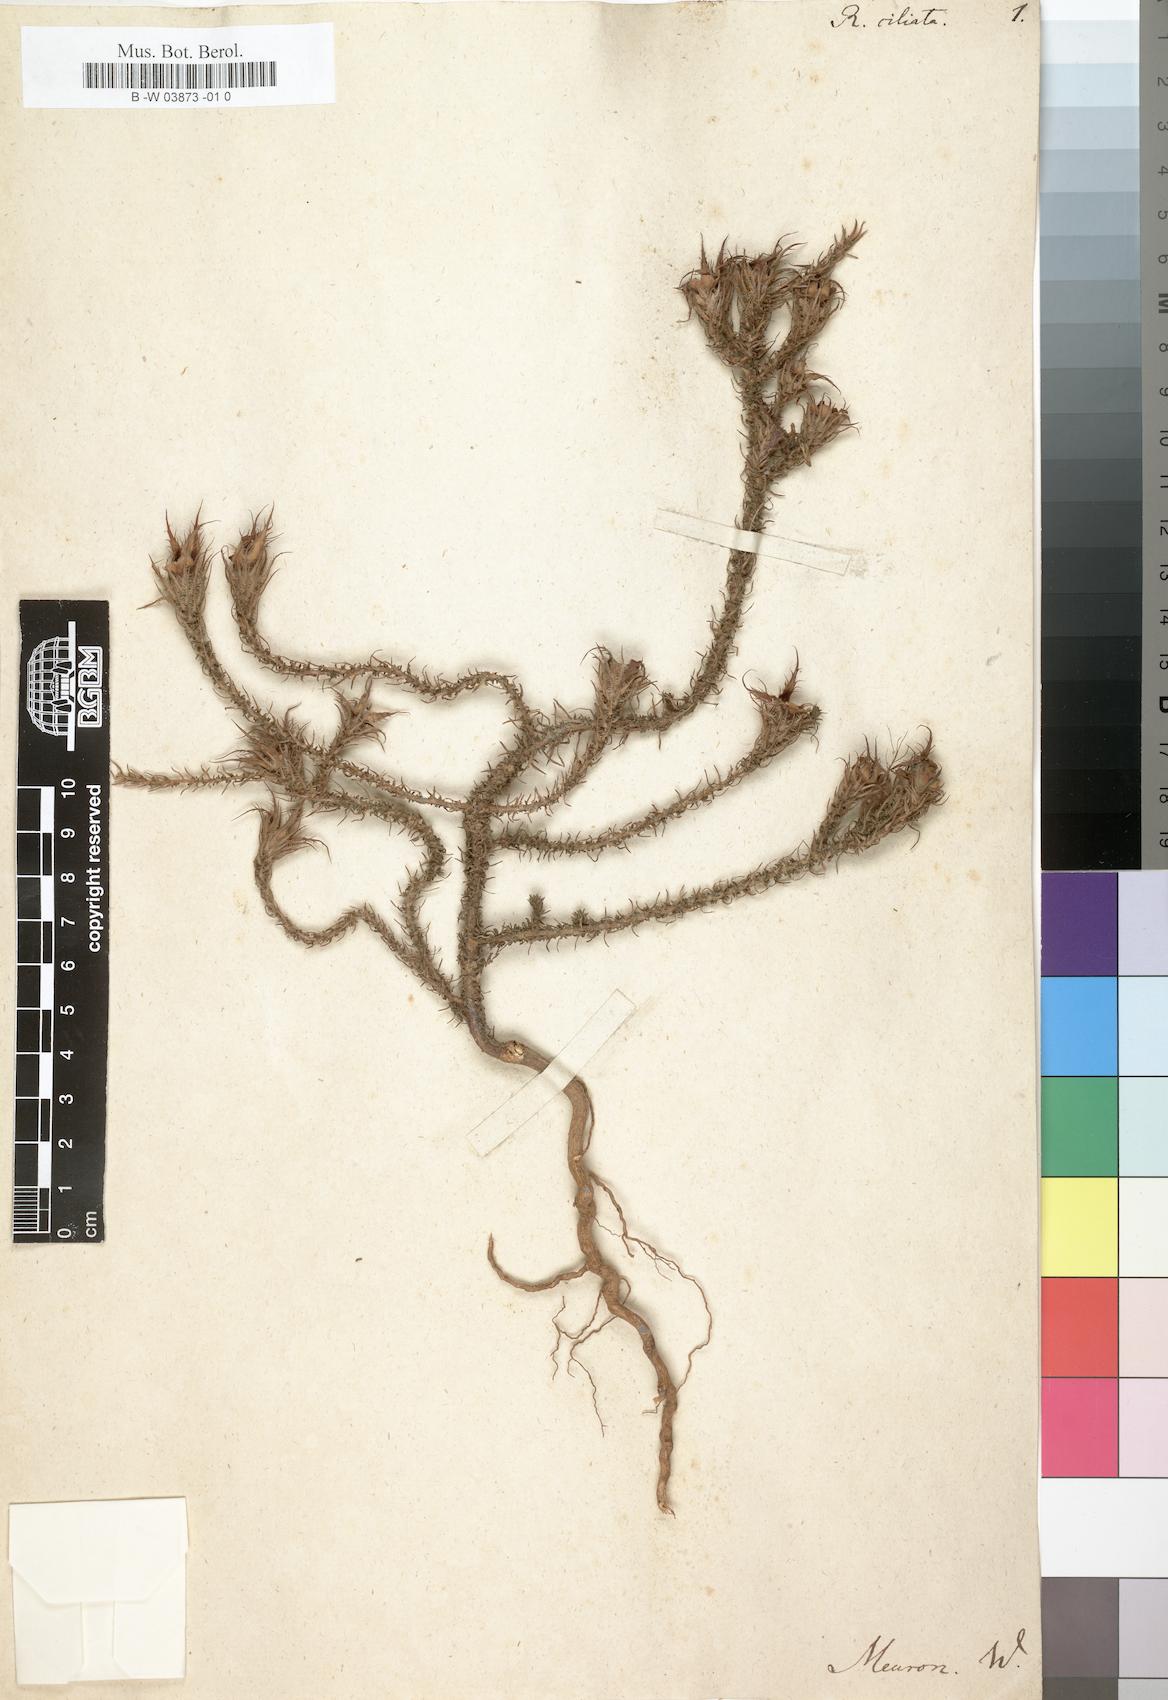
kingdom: Plantae
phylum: Tracheophyta
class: Magnoliopsida
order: Asterales
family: Campanulaceae
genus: Roella
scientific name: Roella ciliata
